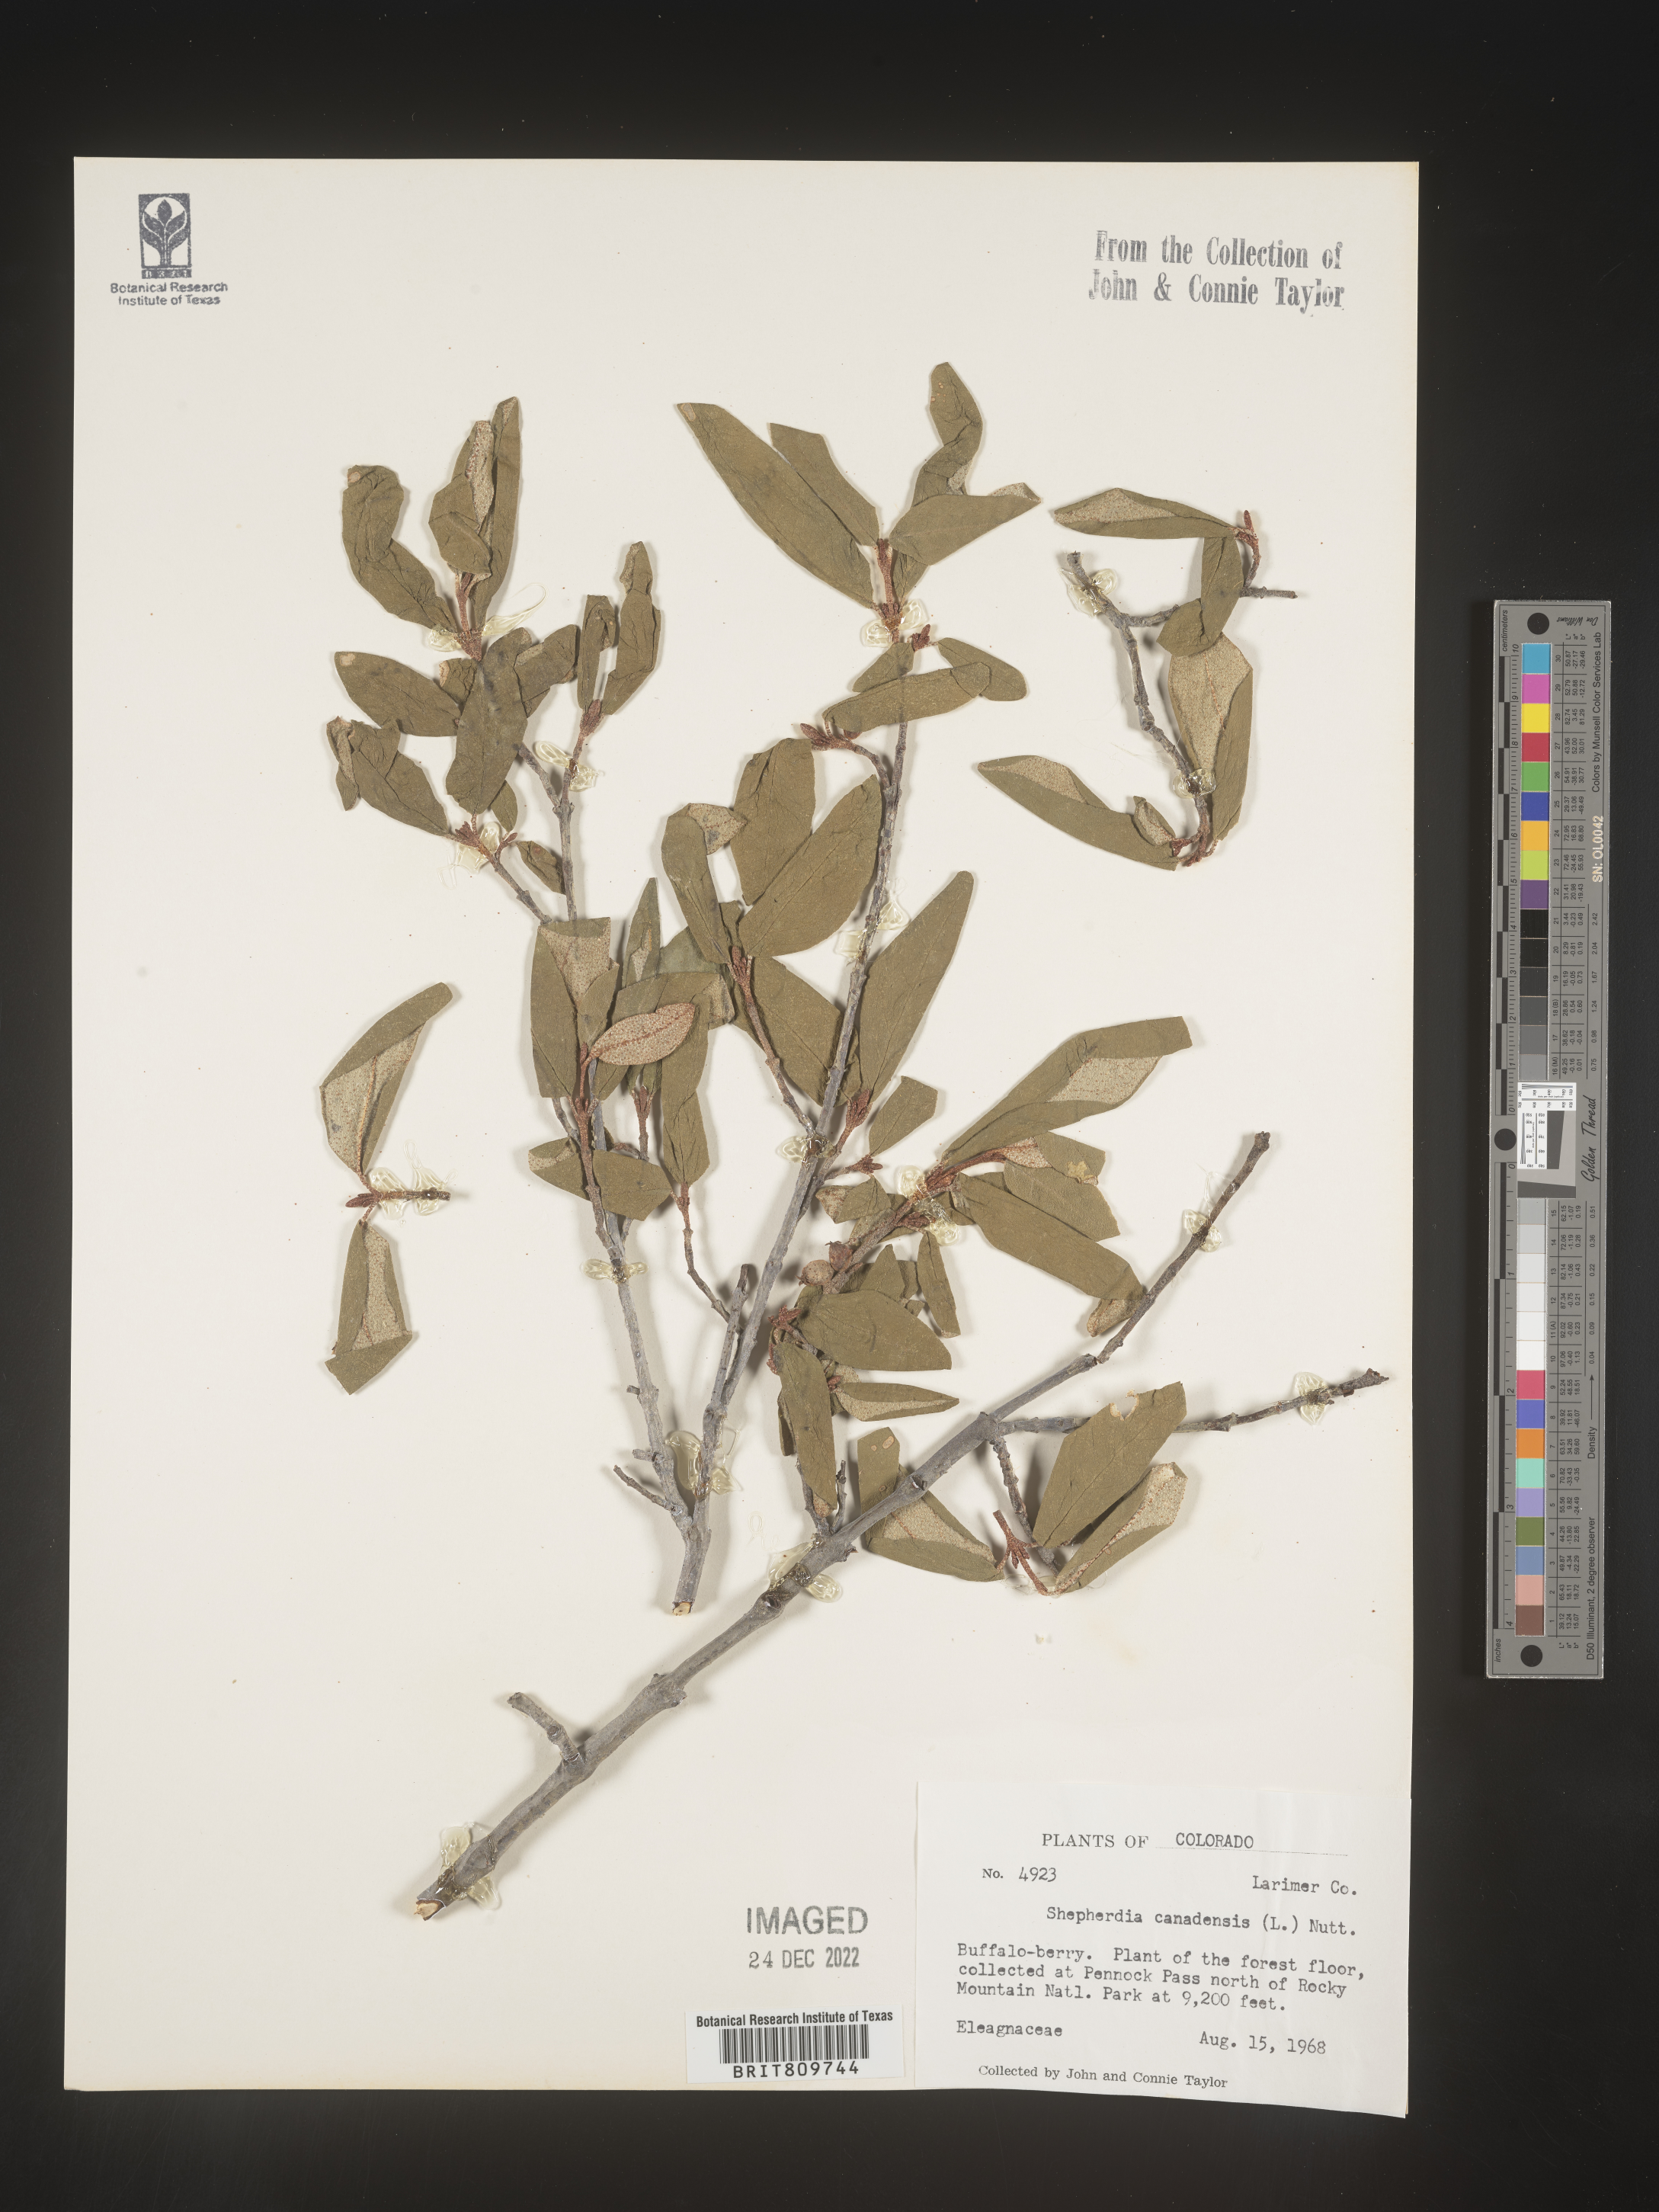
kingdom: Plantae
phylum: Tracheophyta
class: Magnoliopsida
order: Rosales
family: Elaeagnaceae
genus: Shepherdia
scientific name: Shepherdia canadensis
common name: Soapberry
